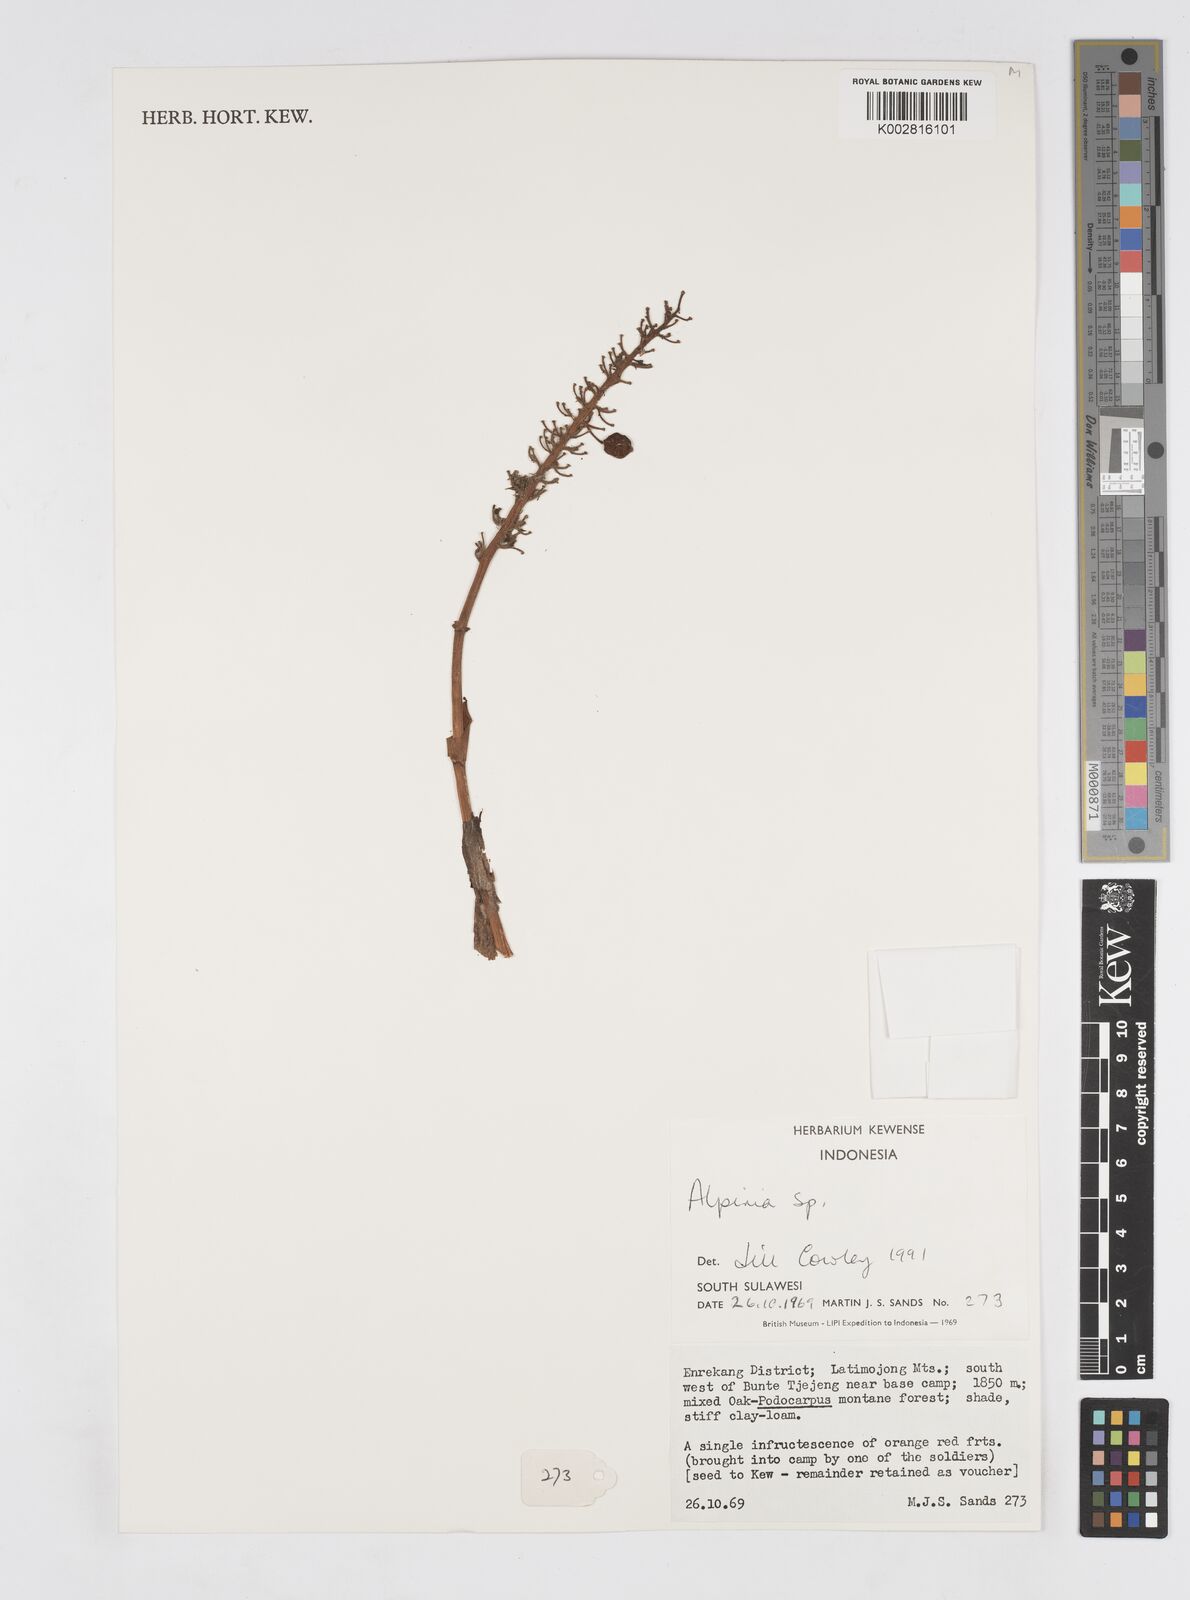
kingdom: Plantae
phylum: Tracheophyta
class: Liliopsida
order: Zingiberales
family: Zingiberaceae
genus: Alpinia
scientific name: Alpinia
